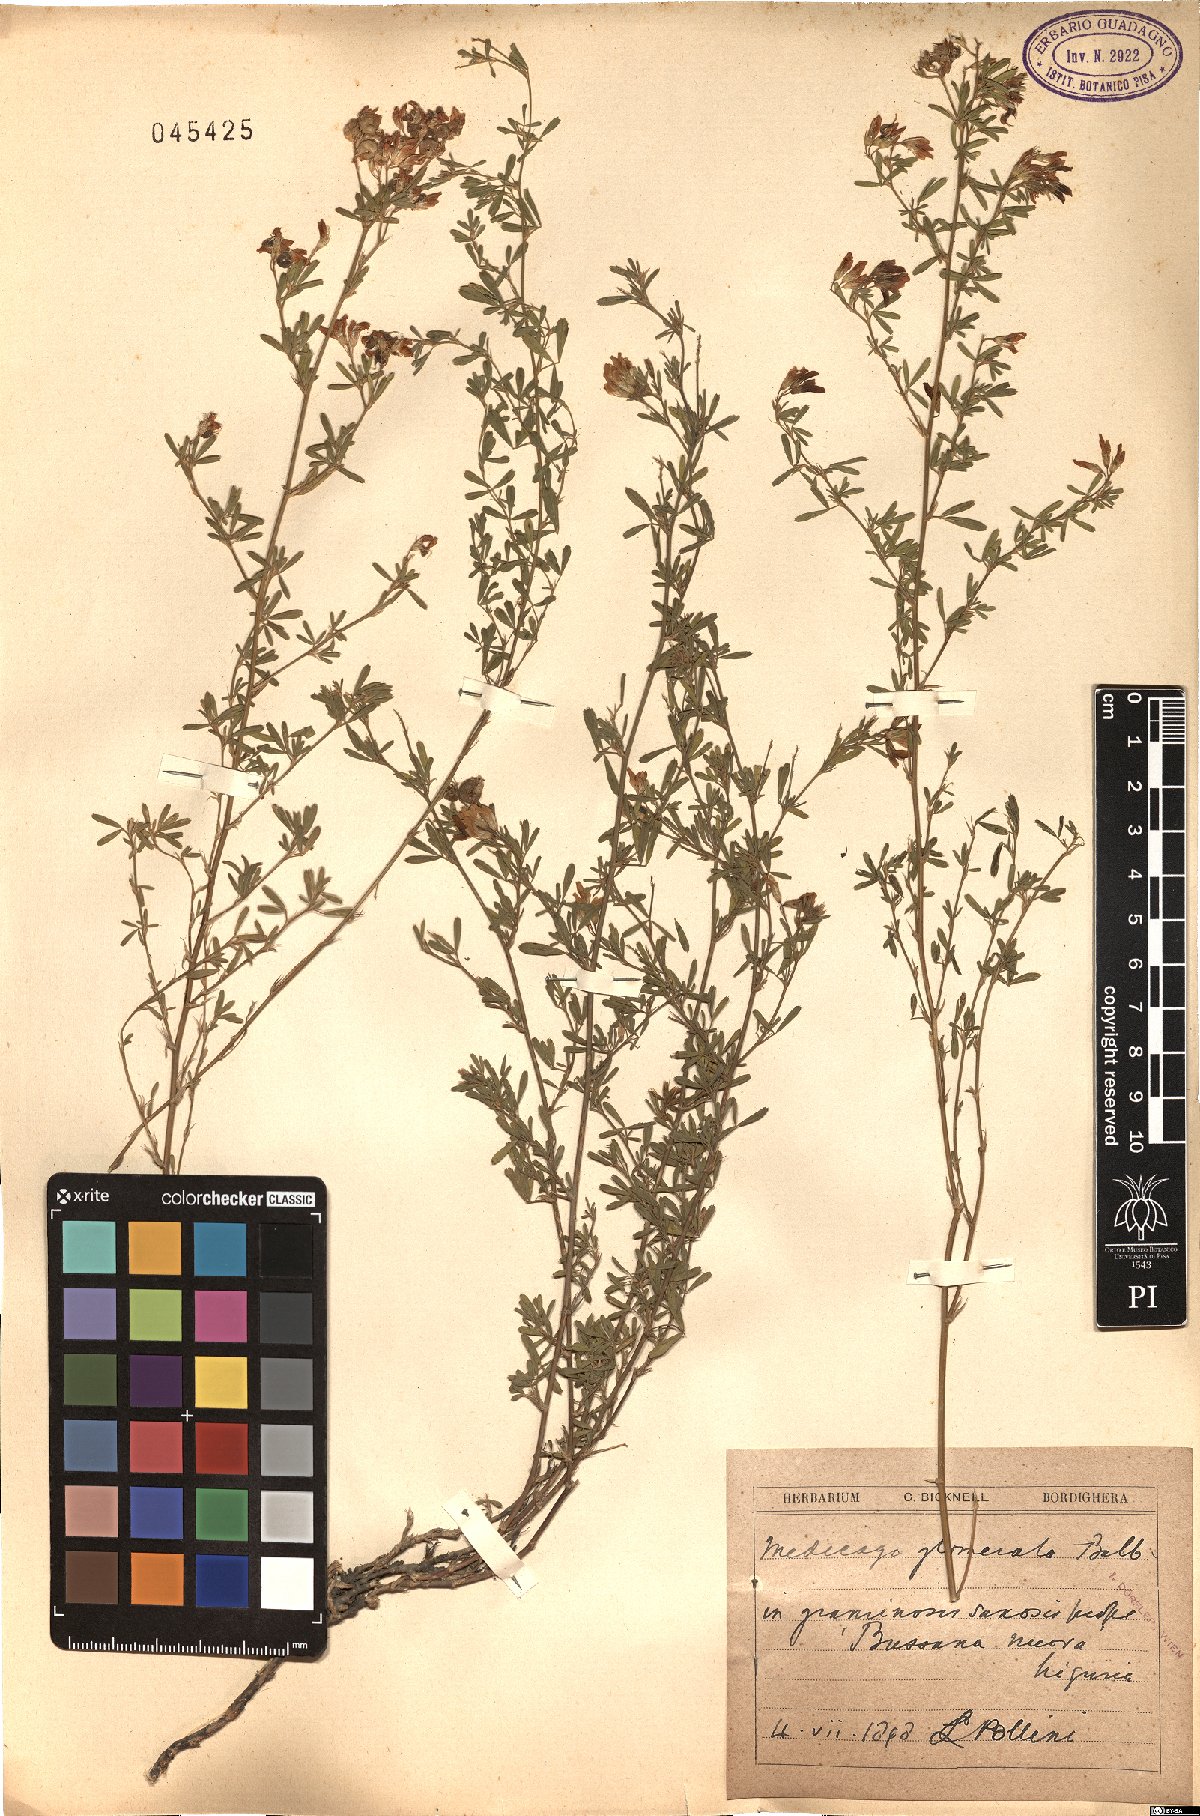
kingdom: Plantae
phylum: Tracheophyta
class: Magnoliopsida
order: Fabales
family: Fabaceae
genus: Medicago
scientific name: Medicago sativa
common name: Alfalfa
